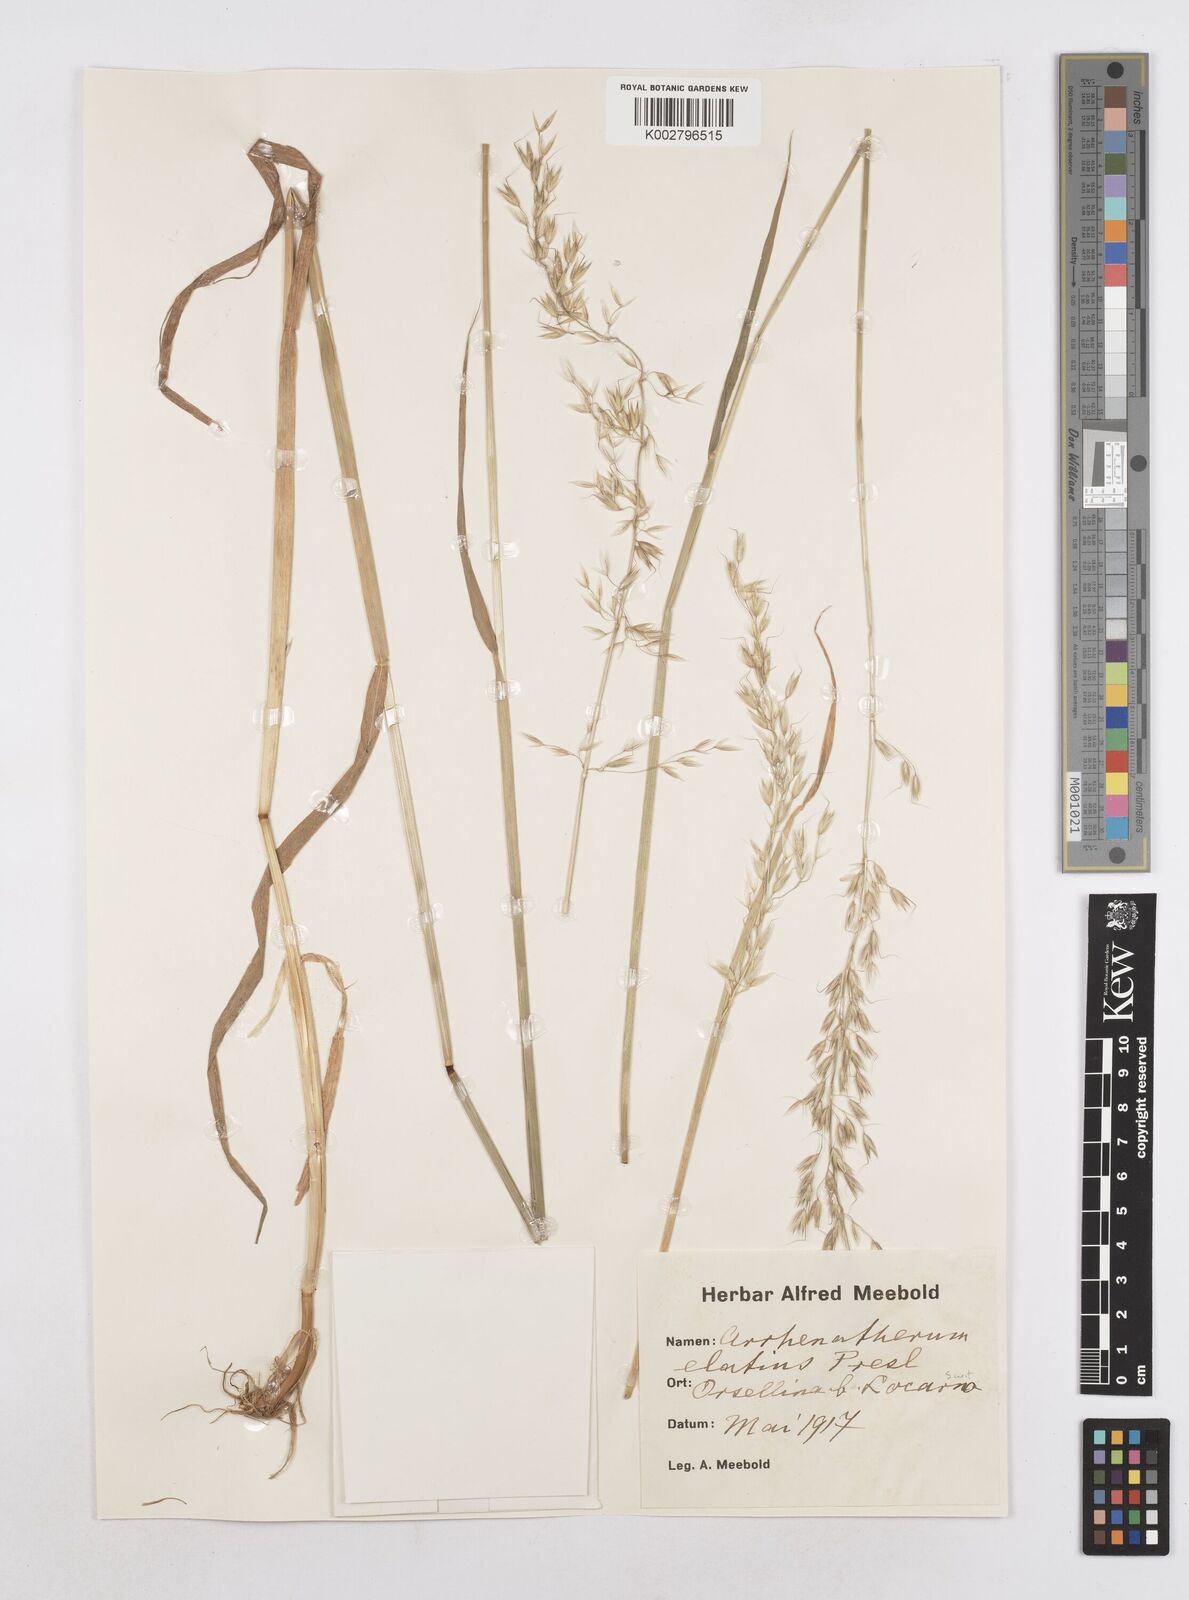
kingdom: Plantae
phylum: Tracheophyta
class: Liliopsida
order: Poales
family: Poaceae
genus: Arrhenatherum
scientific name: Arrhenatherum elatius
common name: Tall oatgrass
